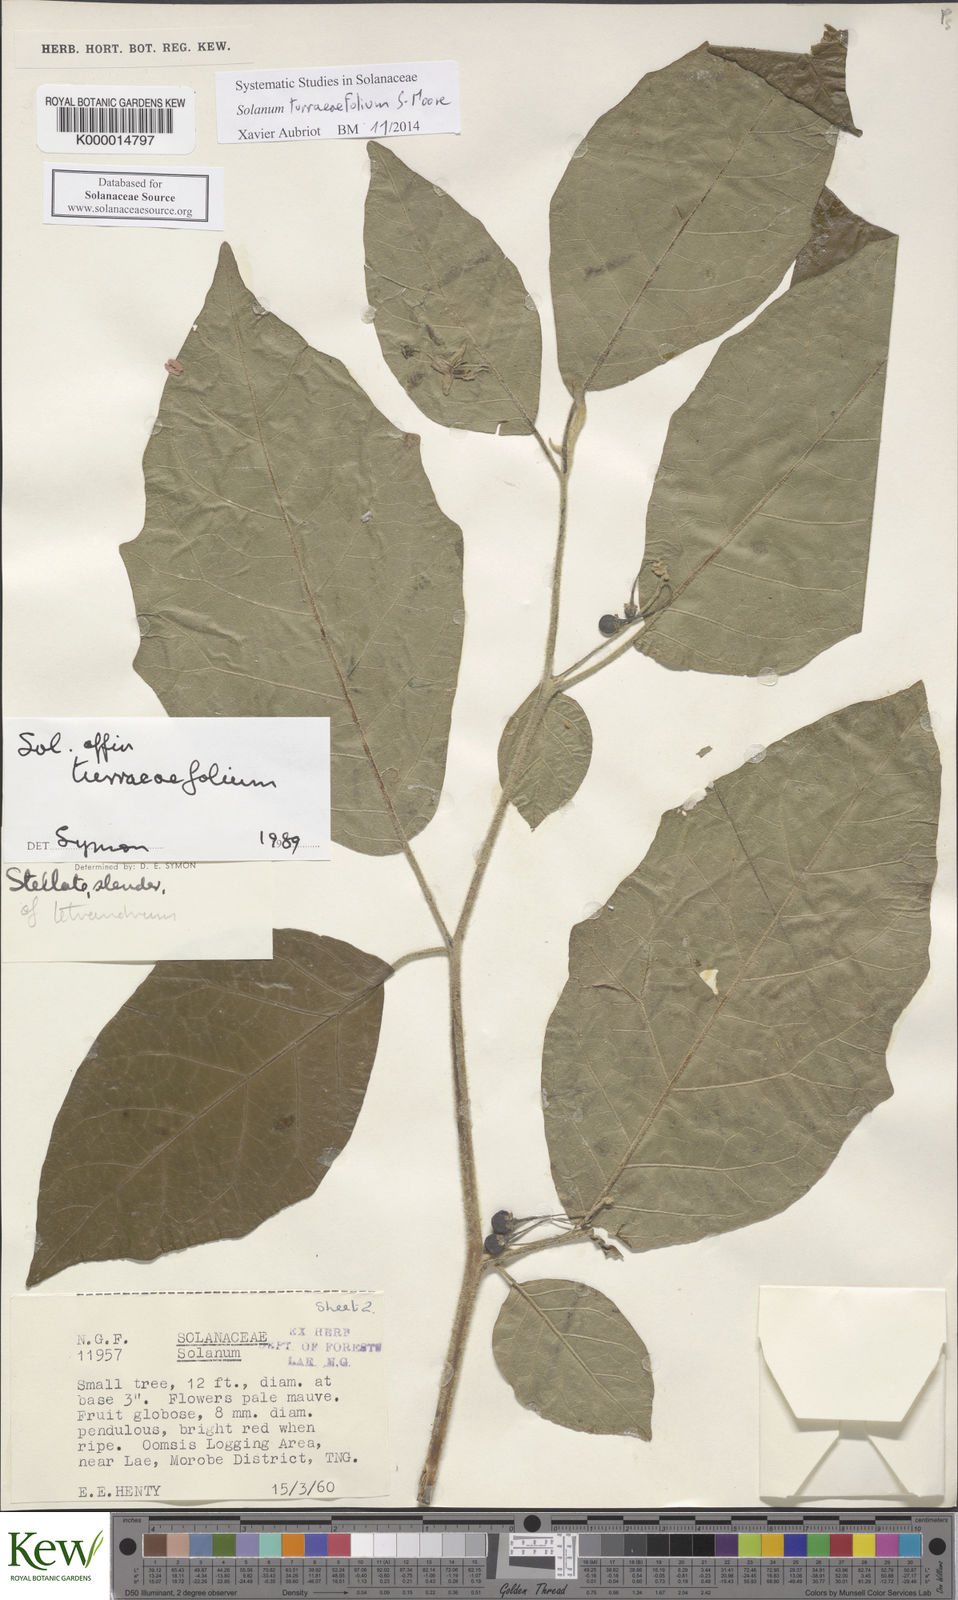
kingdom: Plantae
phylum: Tracheophyta
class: Magnoliopsida
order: Solanales
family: Solanaceae
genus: Solanum
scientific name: Solanum discolor
